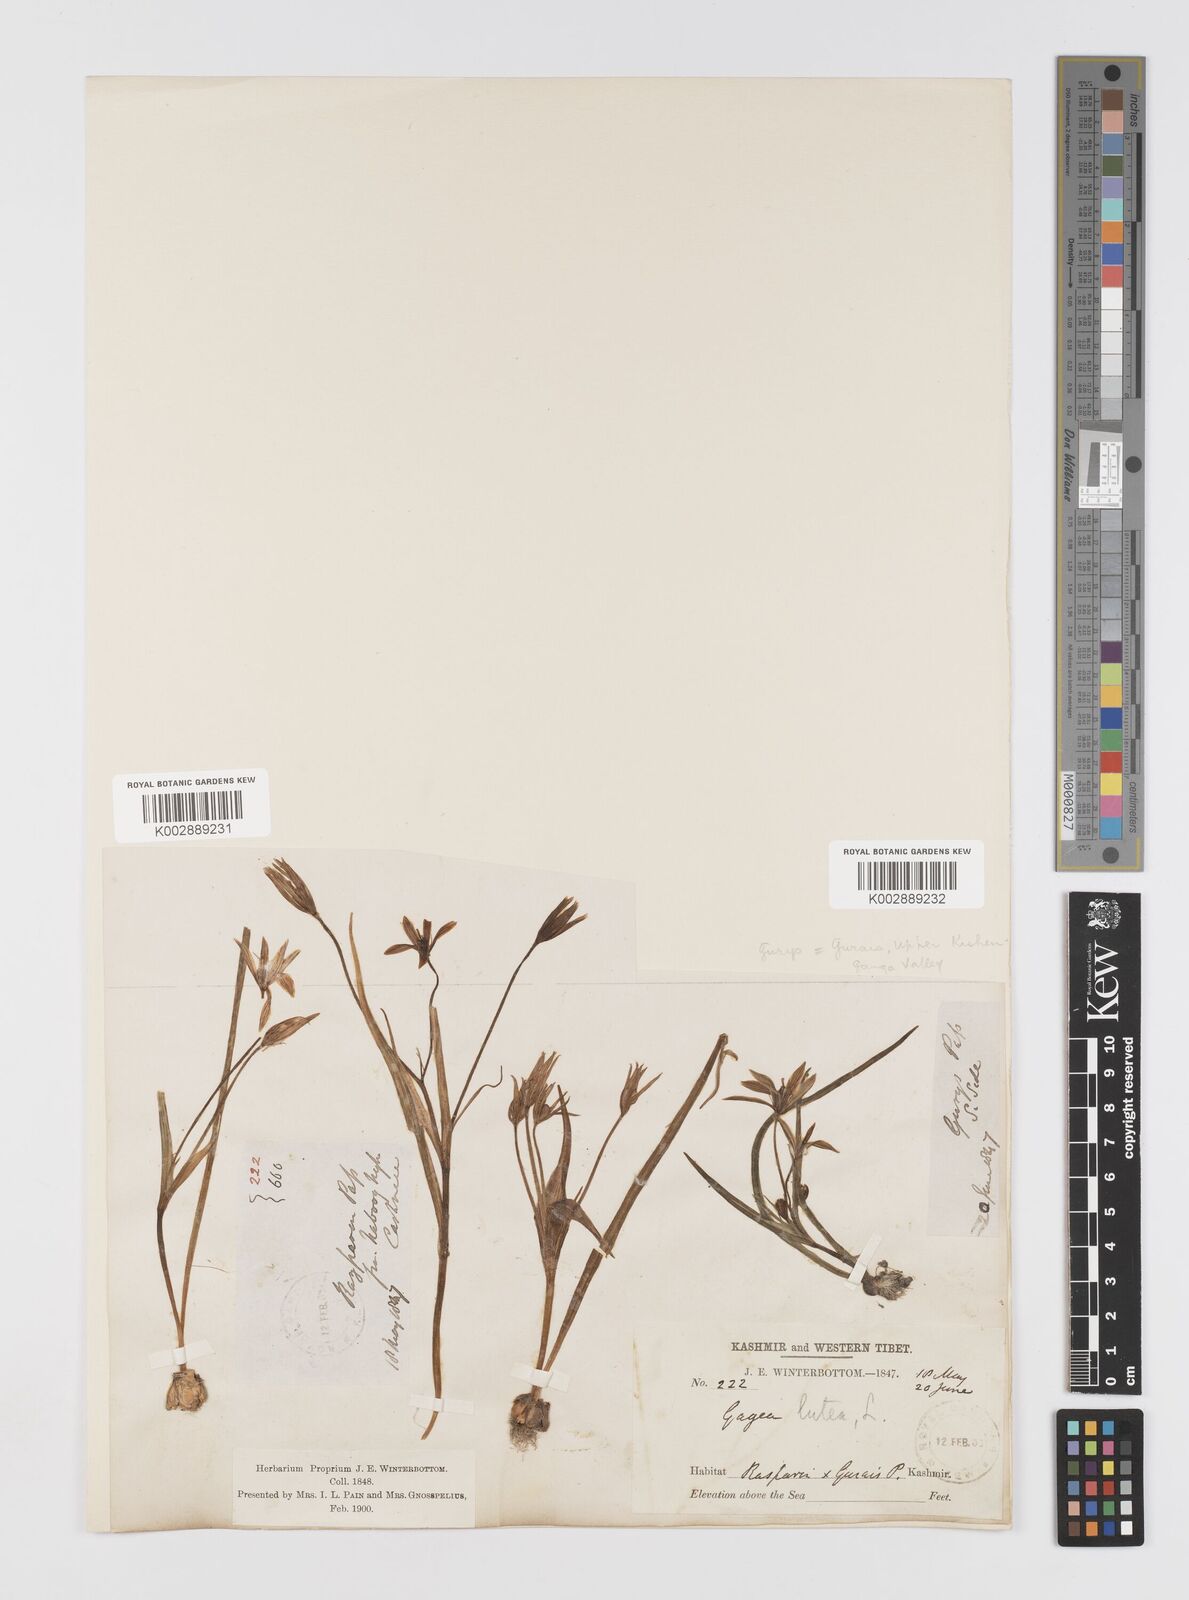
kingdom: Plantae
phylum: Tracheophyta
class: Liliopsida
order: Liliales
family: Liliaceae
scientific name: Liliaceae
